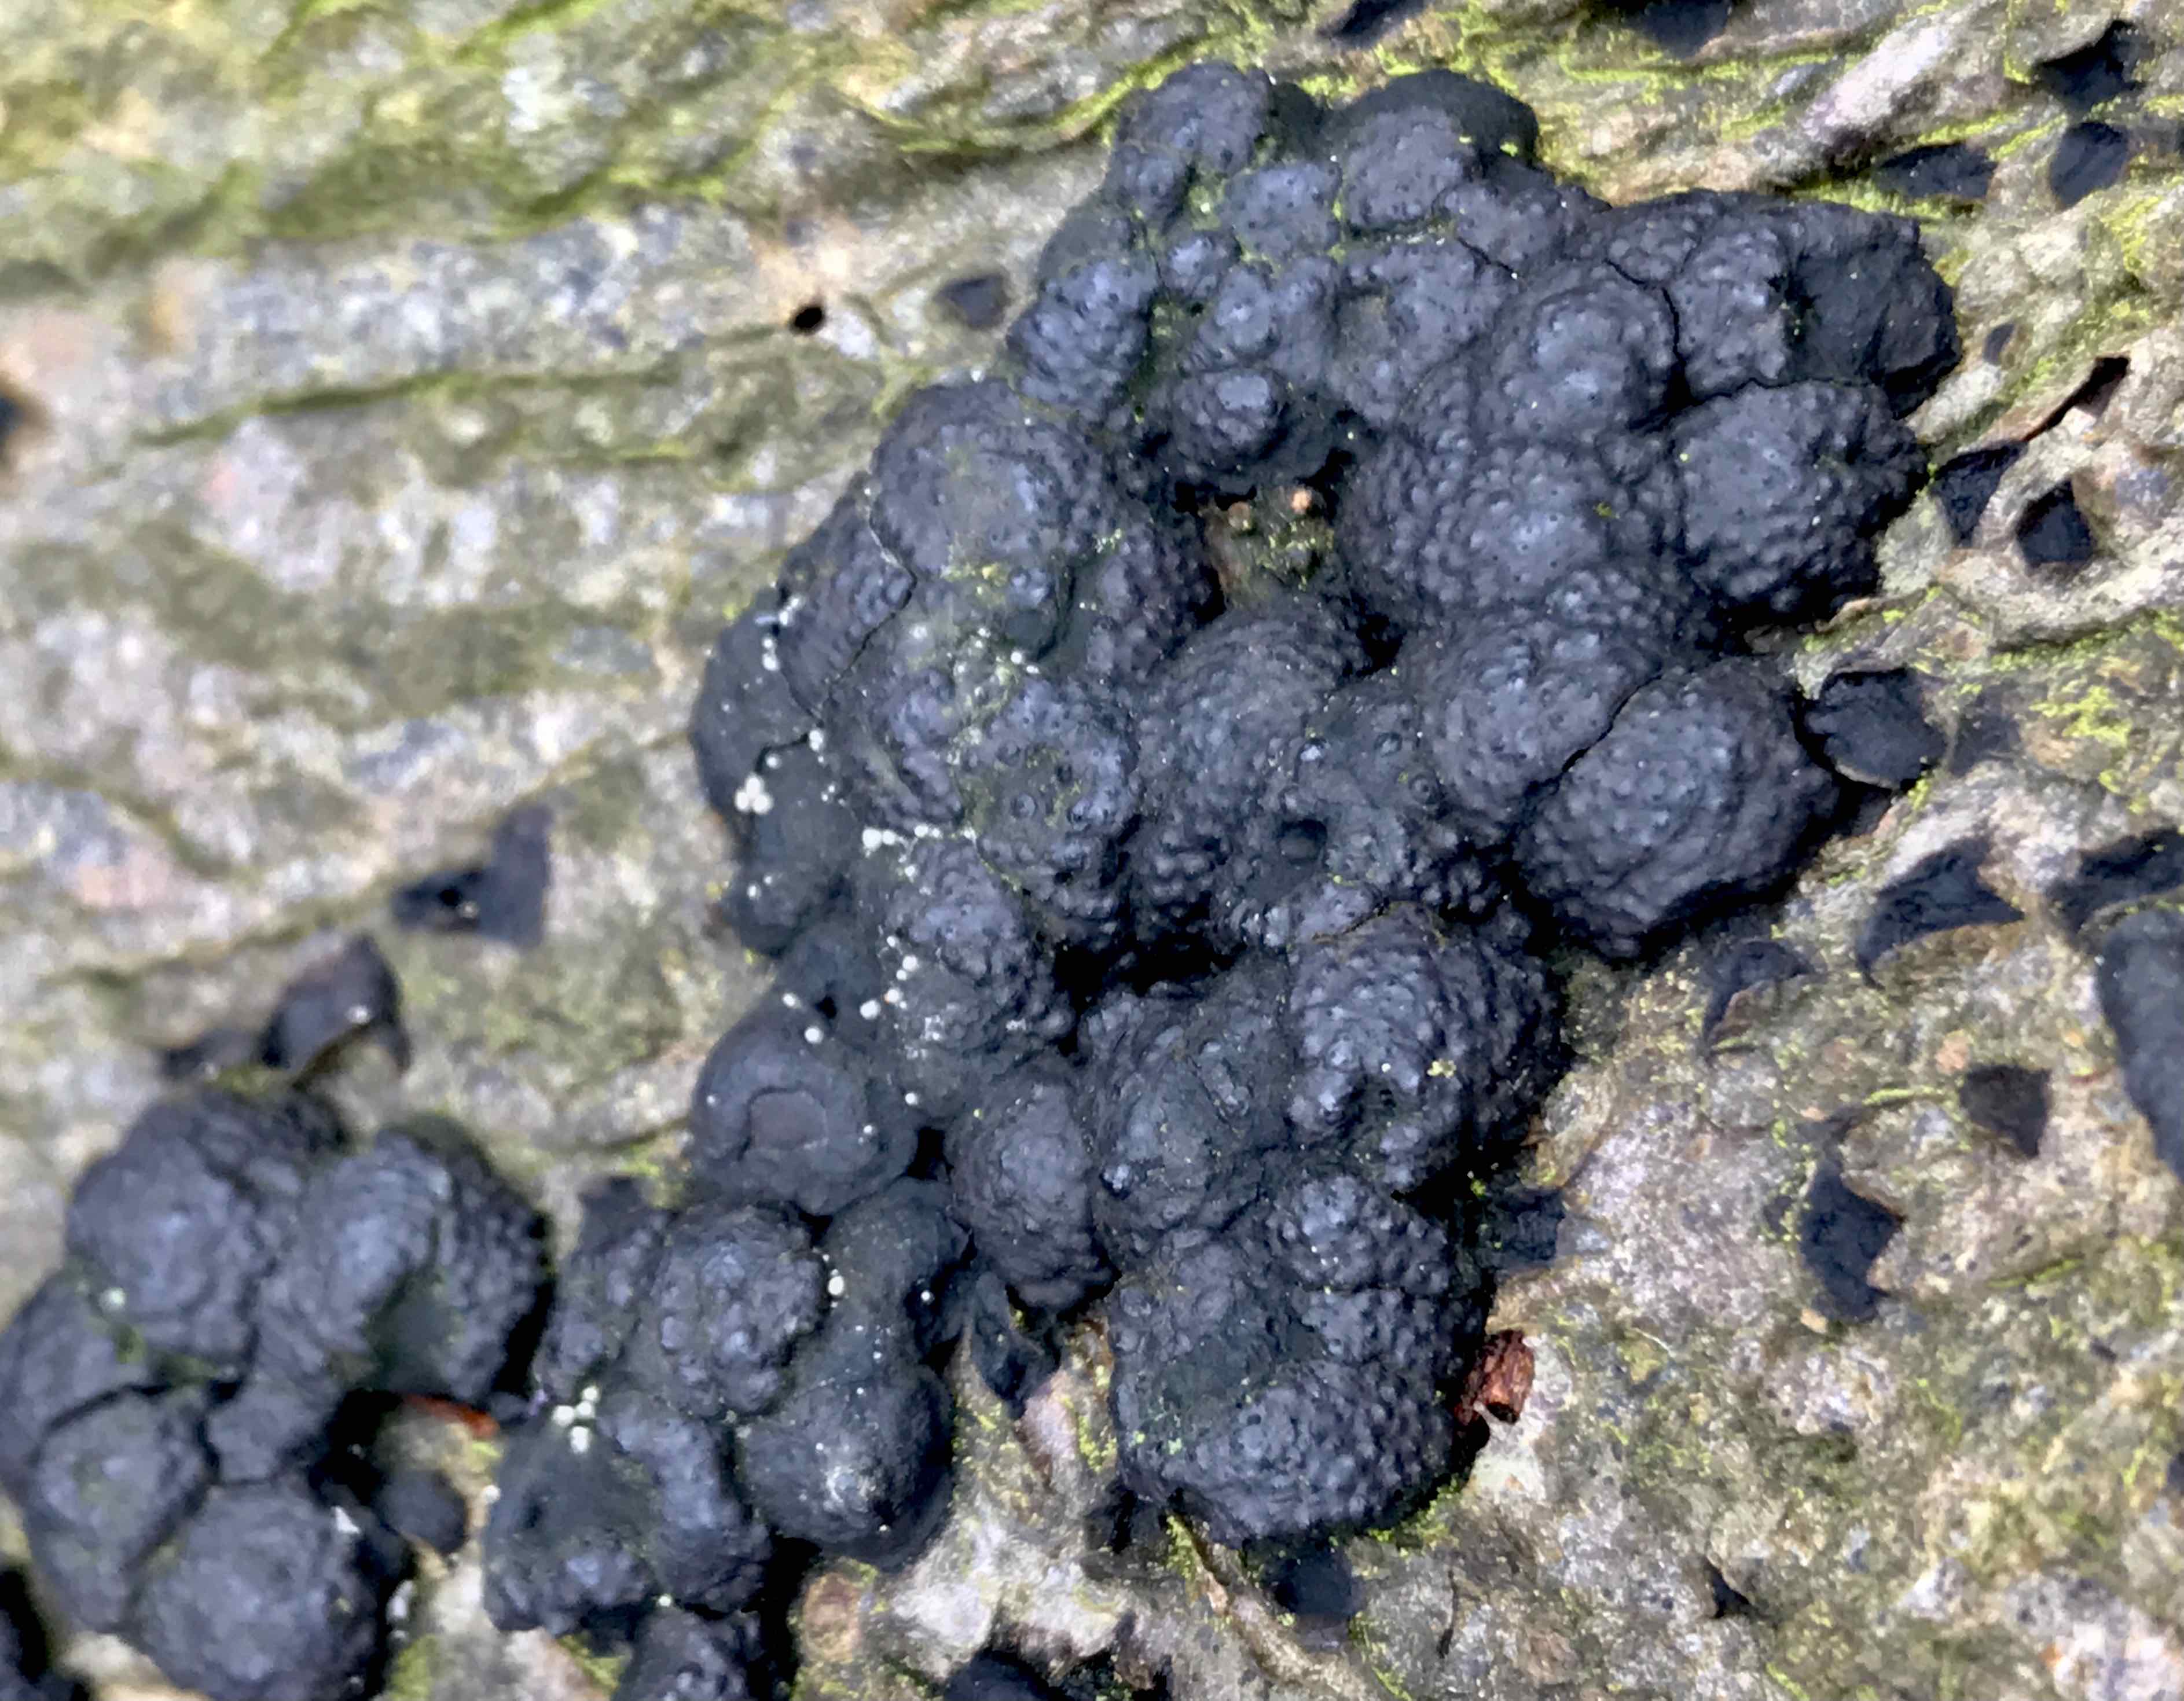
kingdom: Fungi
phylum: Ascomycota
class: Sordariomycetes
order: Xylariales
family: Hypoxylaceae
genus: Jackrogersella
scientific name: Jackrogersella cohaerens
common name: sammenflydende kulbær
